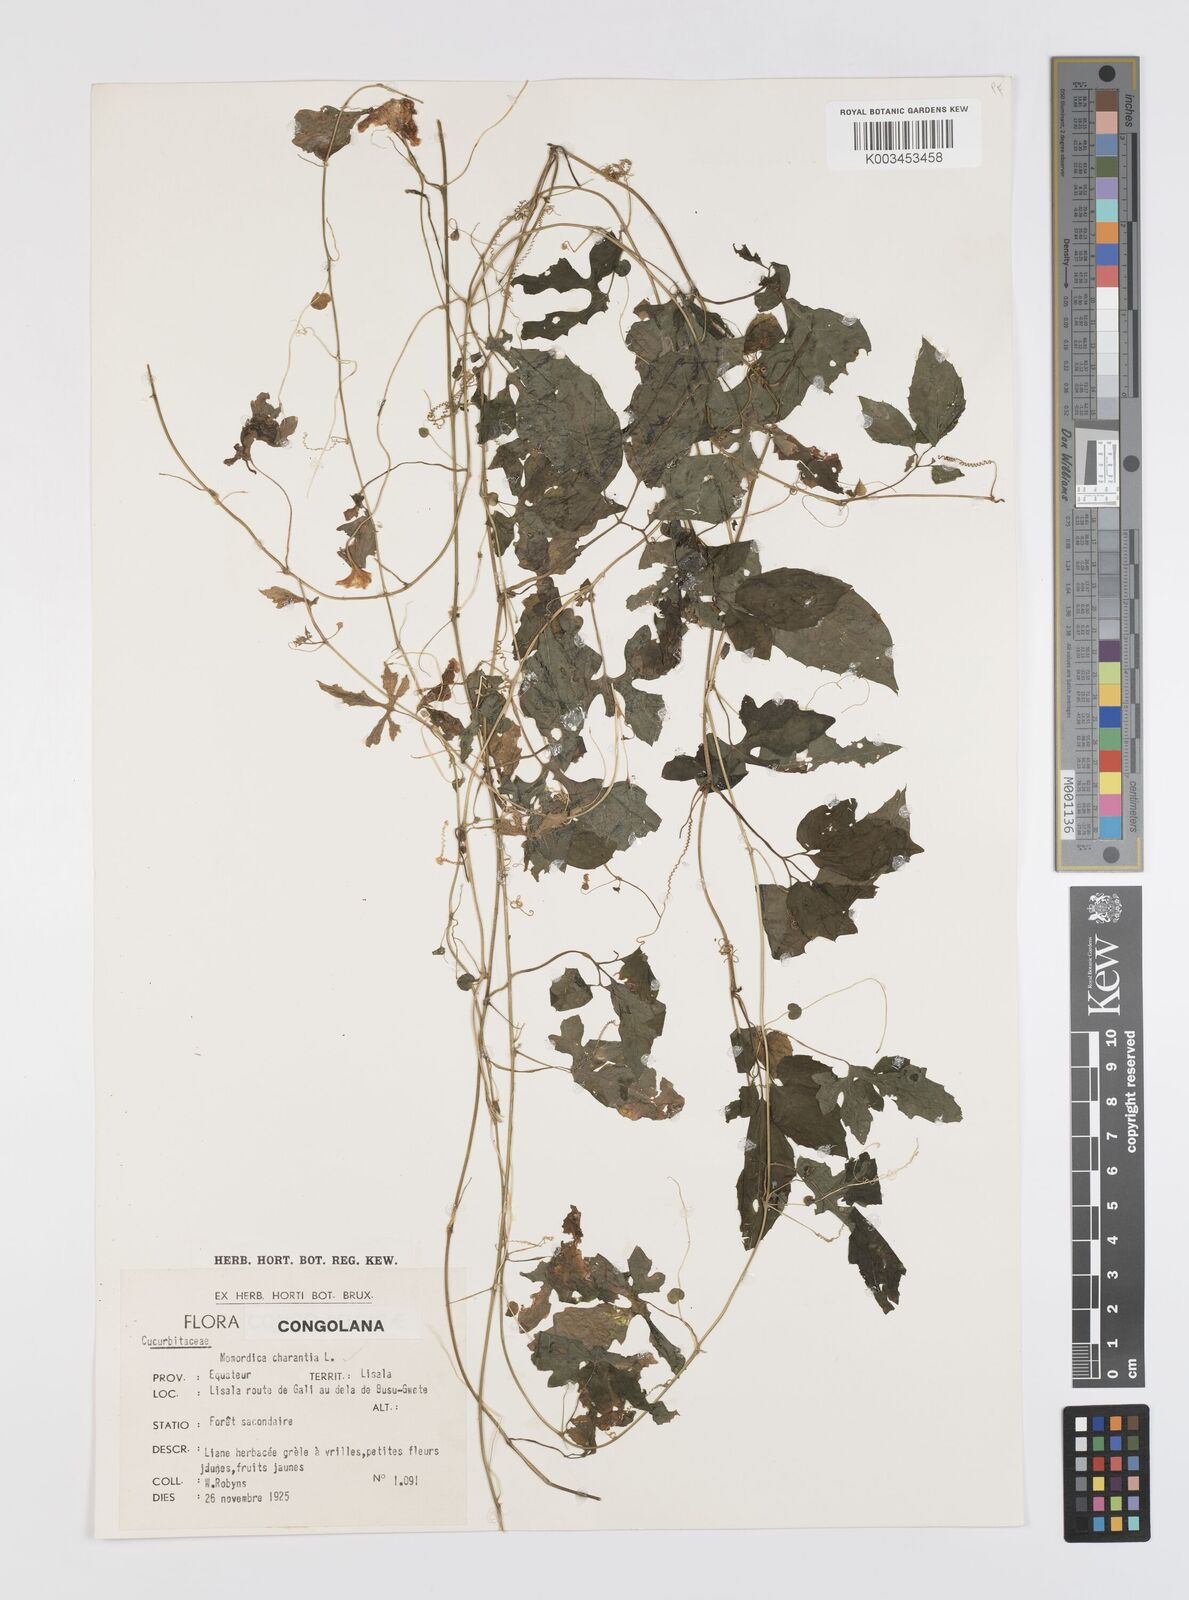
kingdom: Plantae
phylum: Tracheophyta
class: Magnoliopsida
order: Cucurbitales
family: Cucurbitaceae
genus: Momordica
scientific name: Momordica charantia
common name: Balsampear
